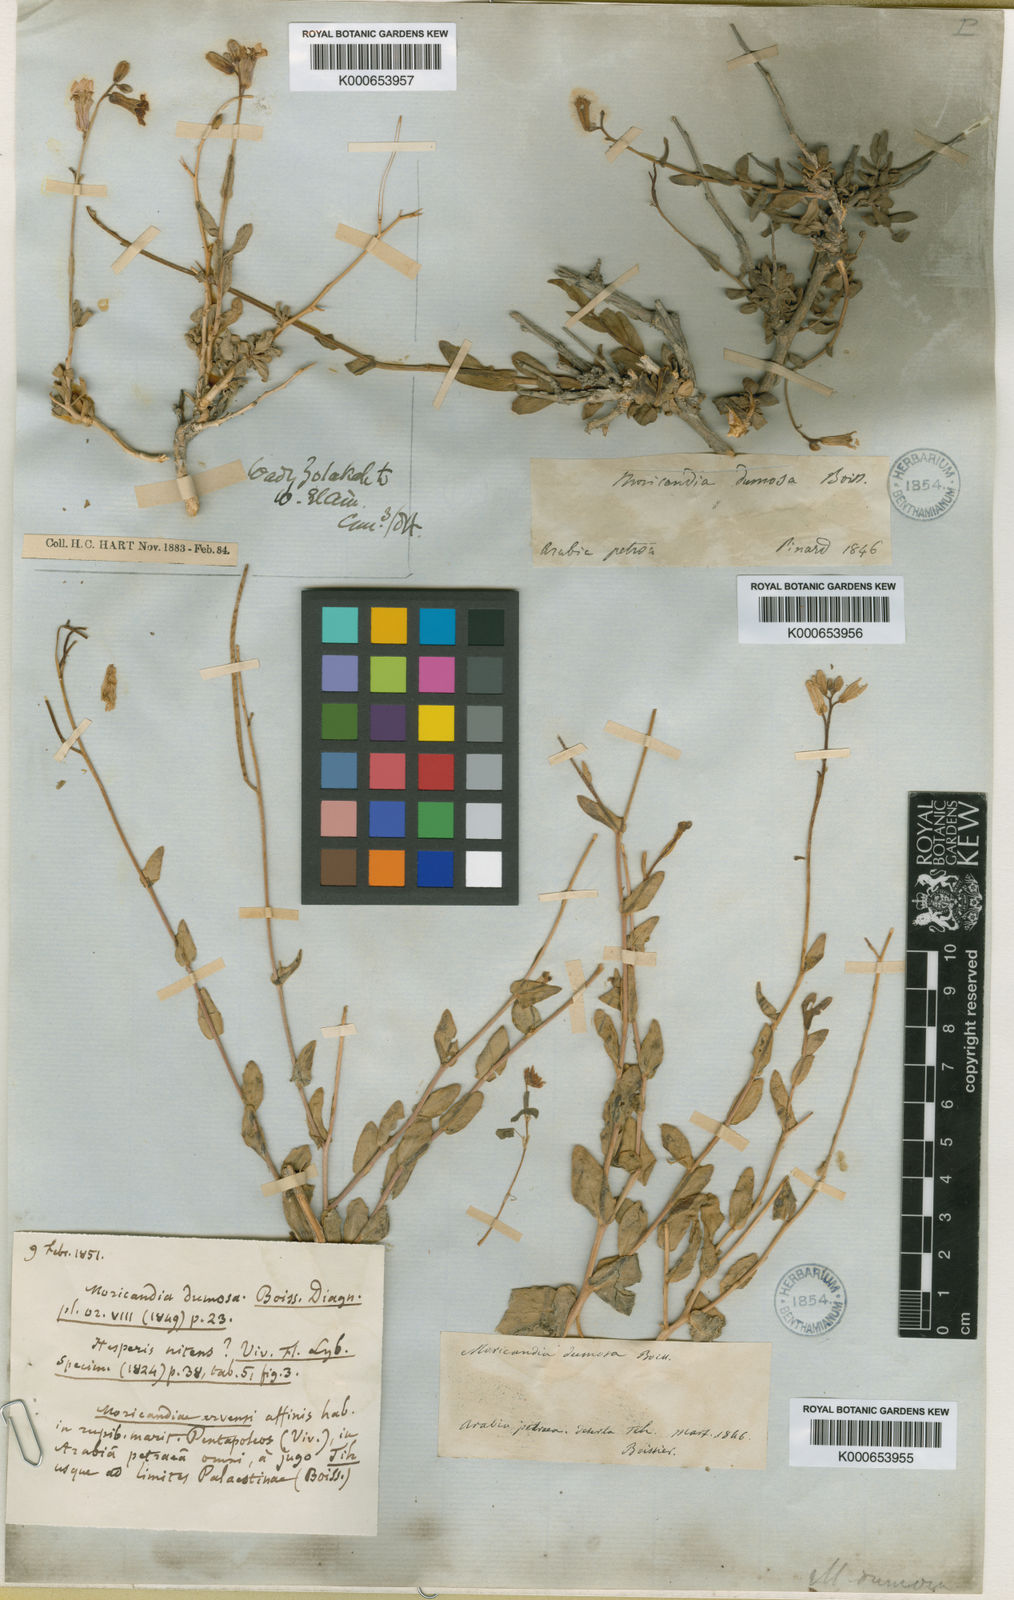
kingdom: Plantae
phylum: Tracheophyta
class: Magnoliopsida
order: Brassicales
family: Brassicaceae
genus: Moricandia
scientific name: Moricandia nitens
